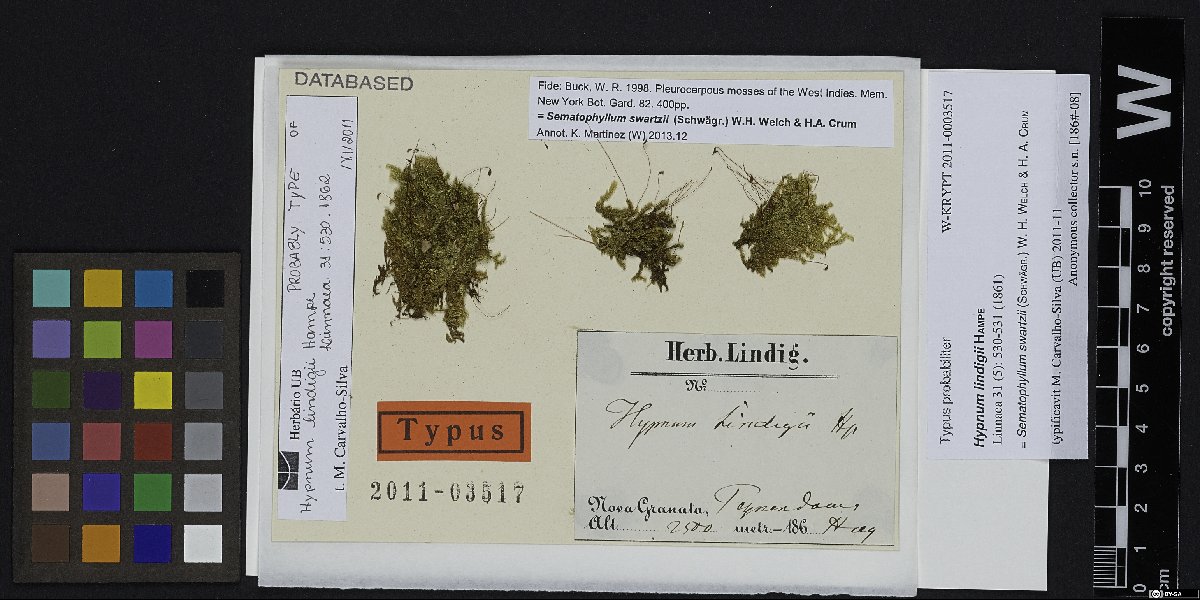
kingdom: Plantae
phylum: Bryophyta
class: Bryopsida
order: Hypnales
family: Sematophyllaceae
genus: Sematophyllum
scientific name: Sematophyllum swartzii
